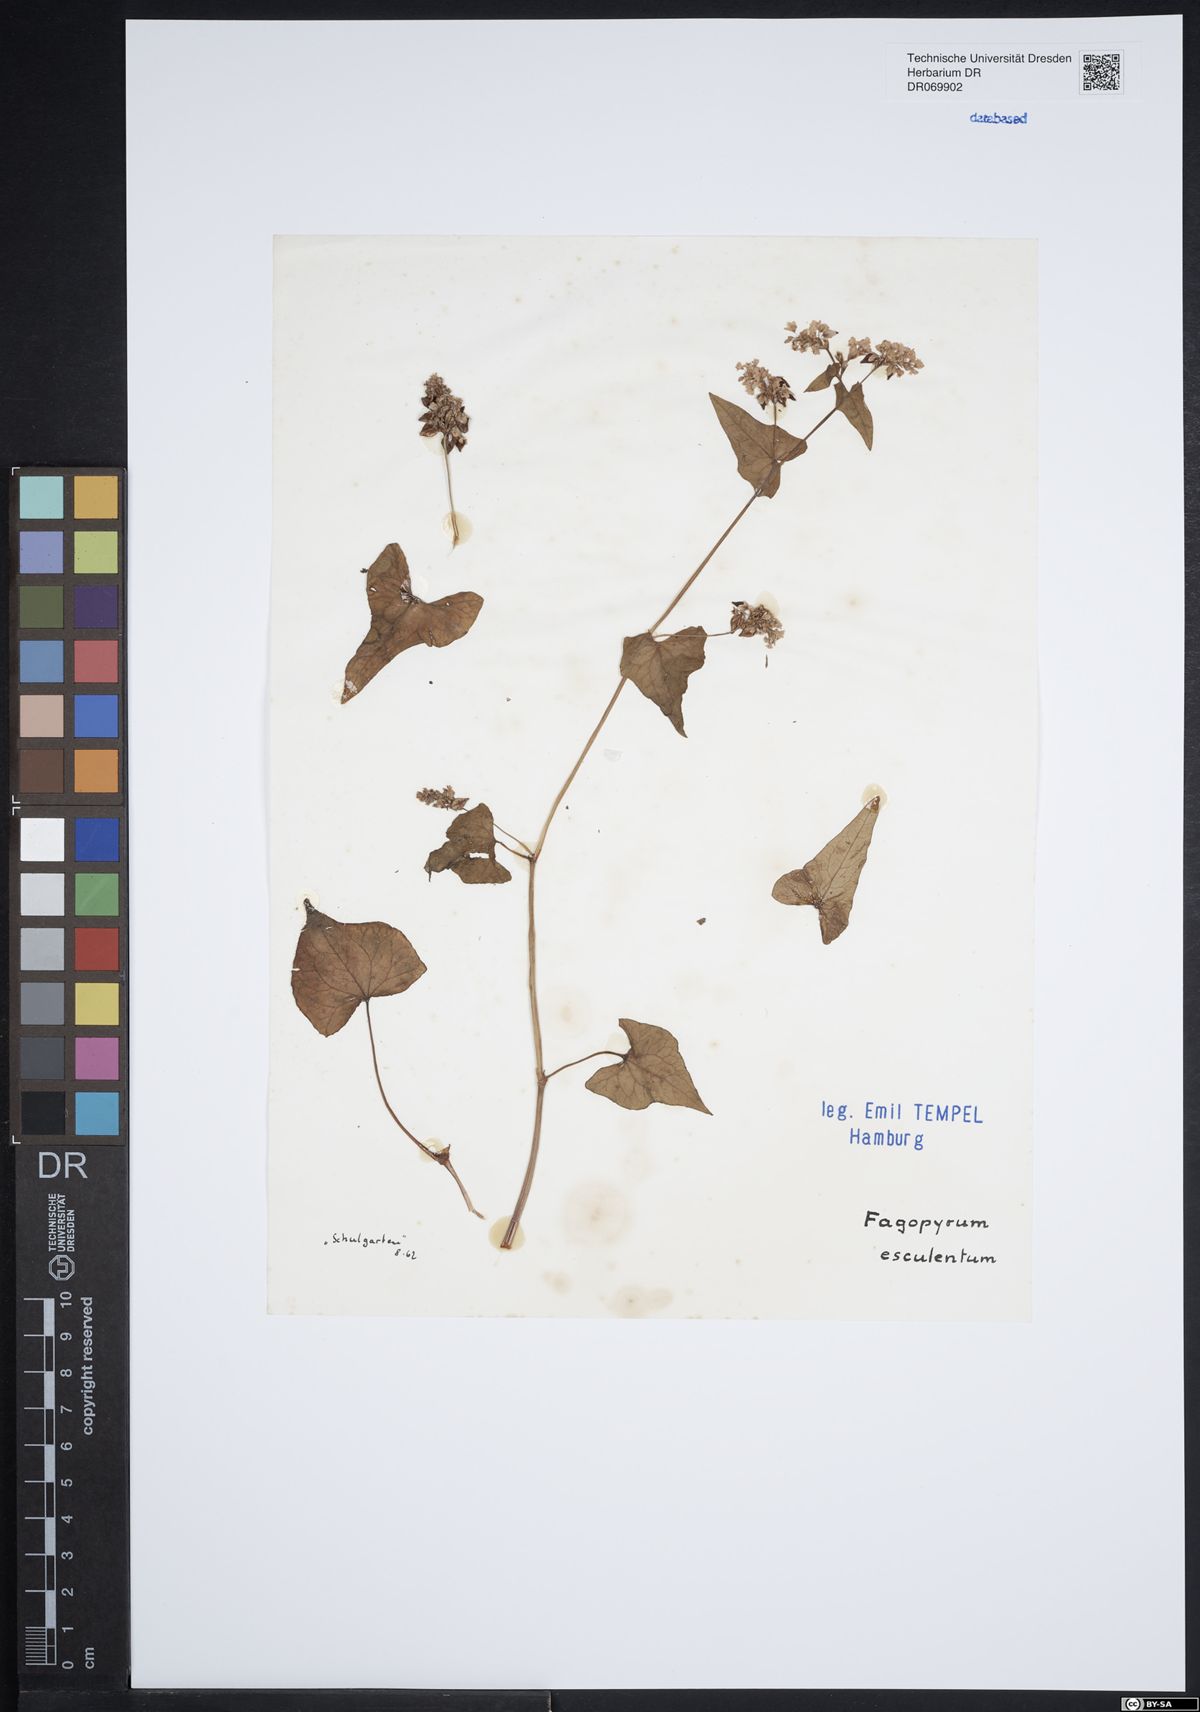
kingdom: Plantae
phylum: Tracheophyta
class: Magnoliopsida
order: Caryophyllales
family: Polygonaceae
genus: Fagopyrum
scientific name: Fagopyrum esculentum
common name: Buckwheat
